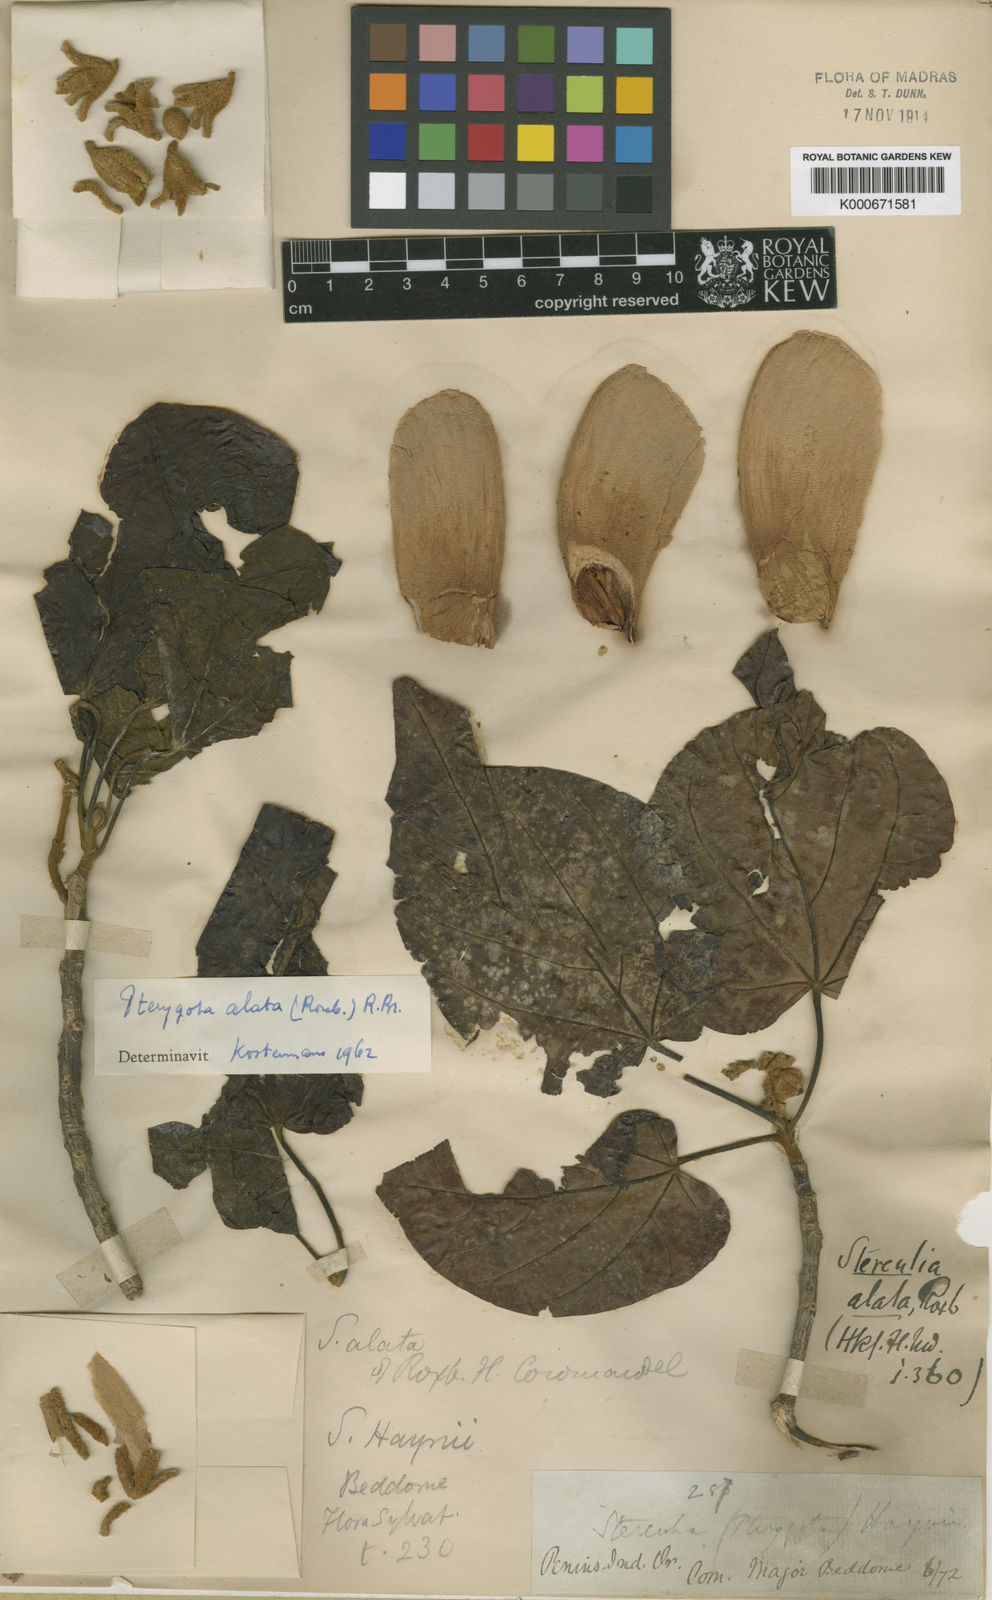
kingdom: Plantae
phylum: Tracheophyta
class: Magnoliopsida
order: Malvales
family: Malvaceae
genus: Pterygota
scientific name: Pterygota alata
